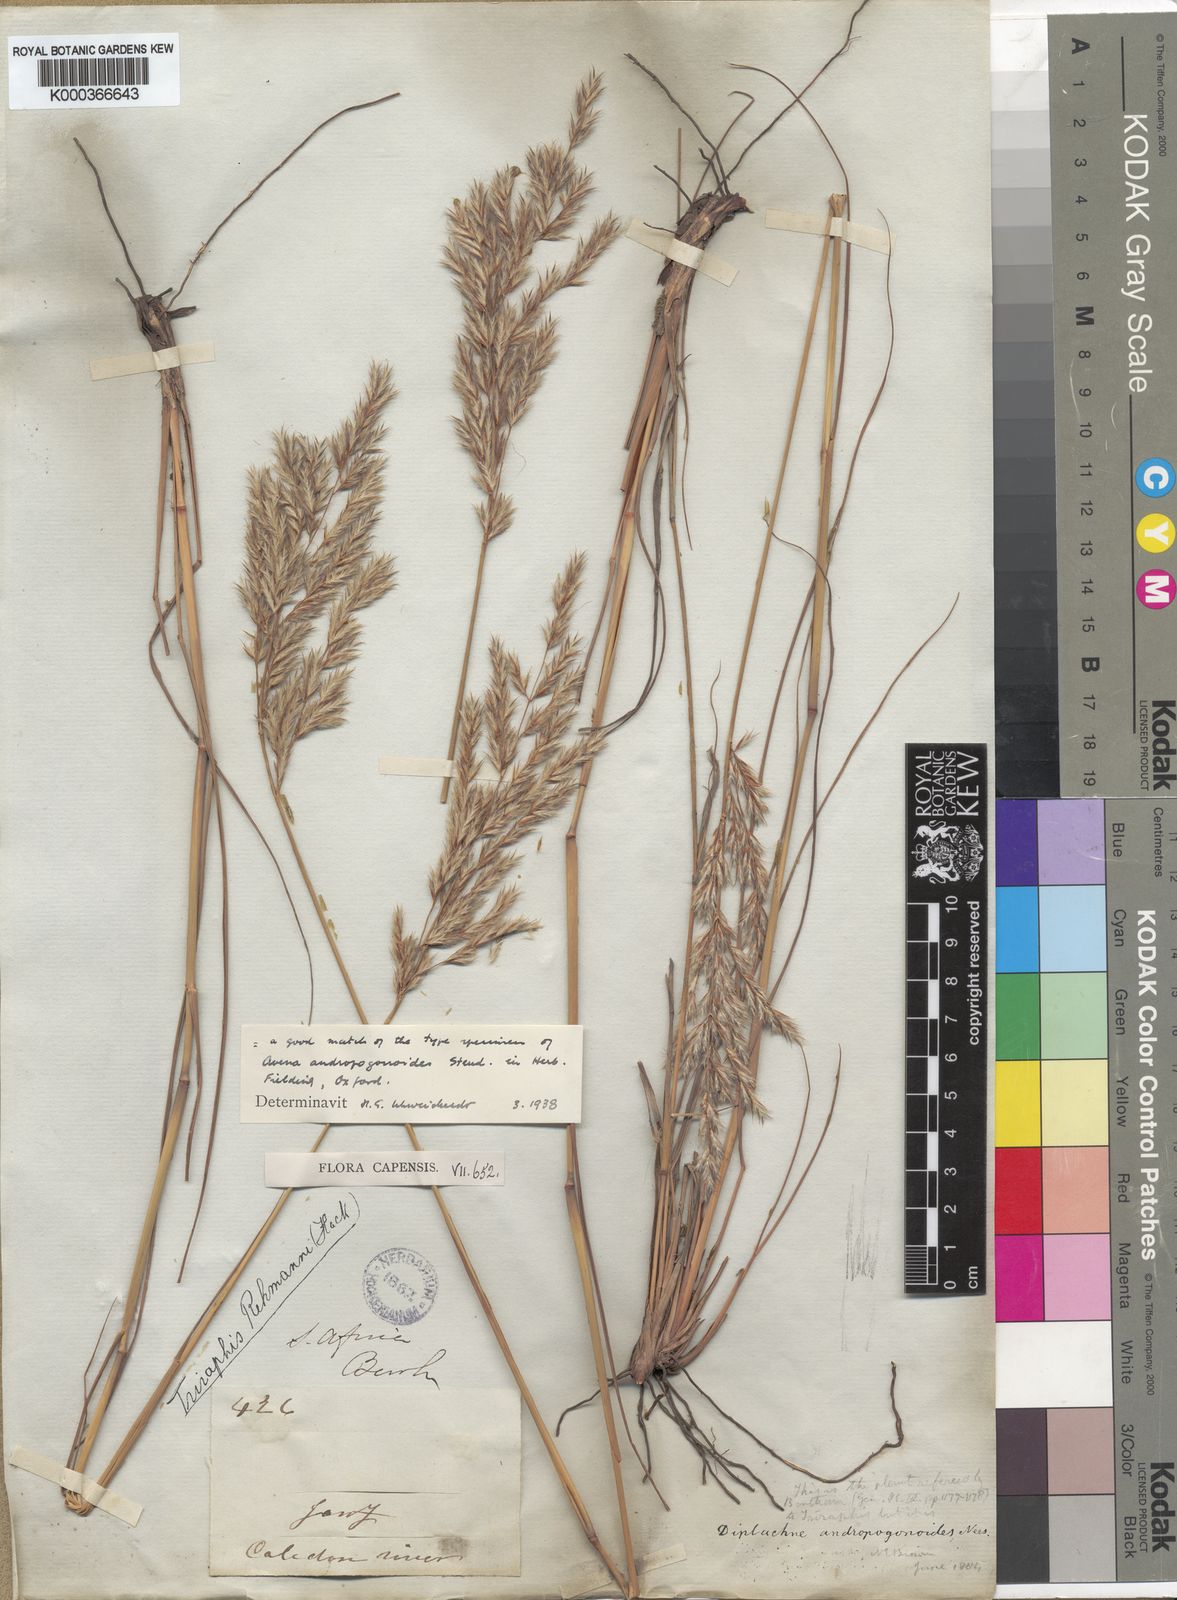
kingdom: Plantae
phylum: Tracheophyta
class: Liliopsida
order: Poales
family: Poaceae
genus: Triraphis
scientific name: Triraphis andropogonoides
